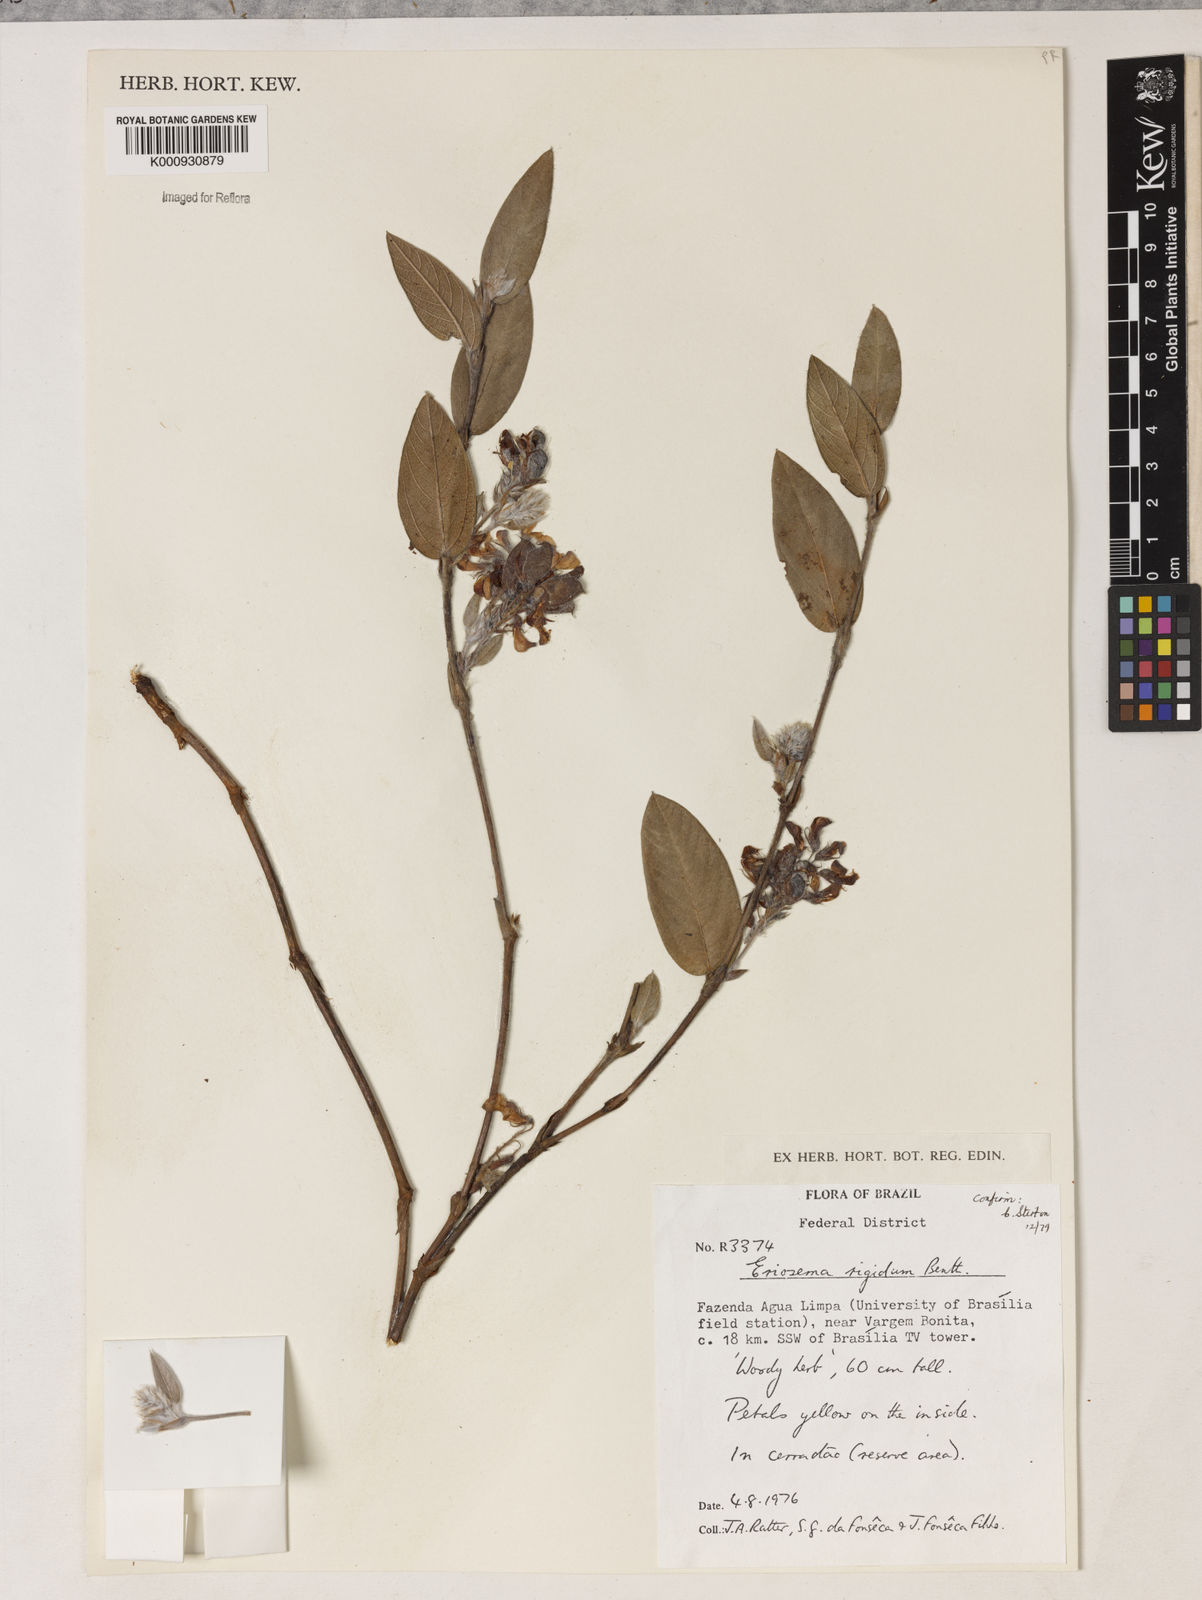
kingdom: Plantae
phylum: Tracheophyta
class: Magnoliopsida
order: Fabales
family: Fabaceae
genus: Eriosema
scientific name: Eriosema rigidum
